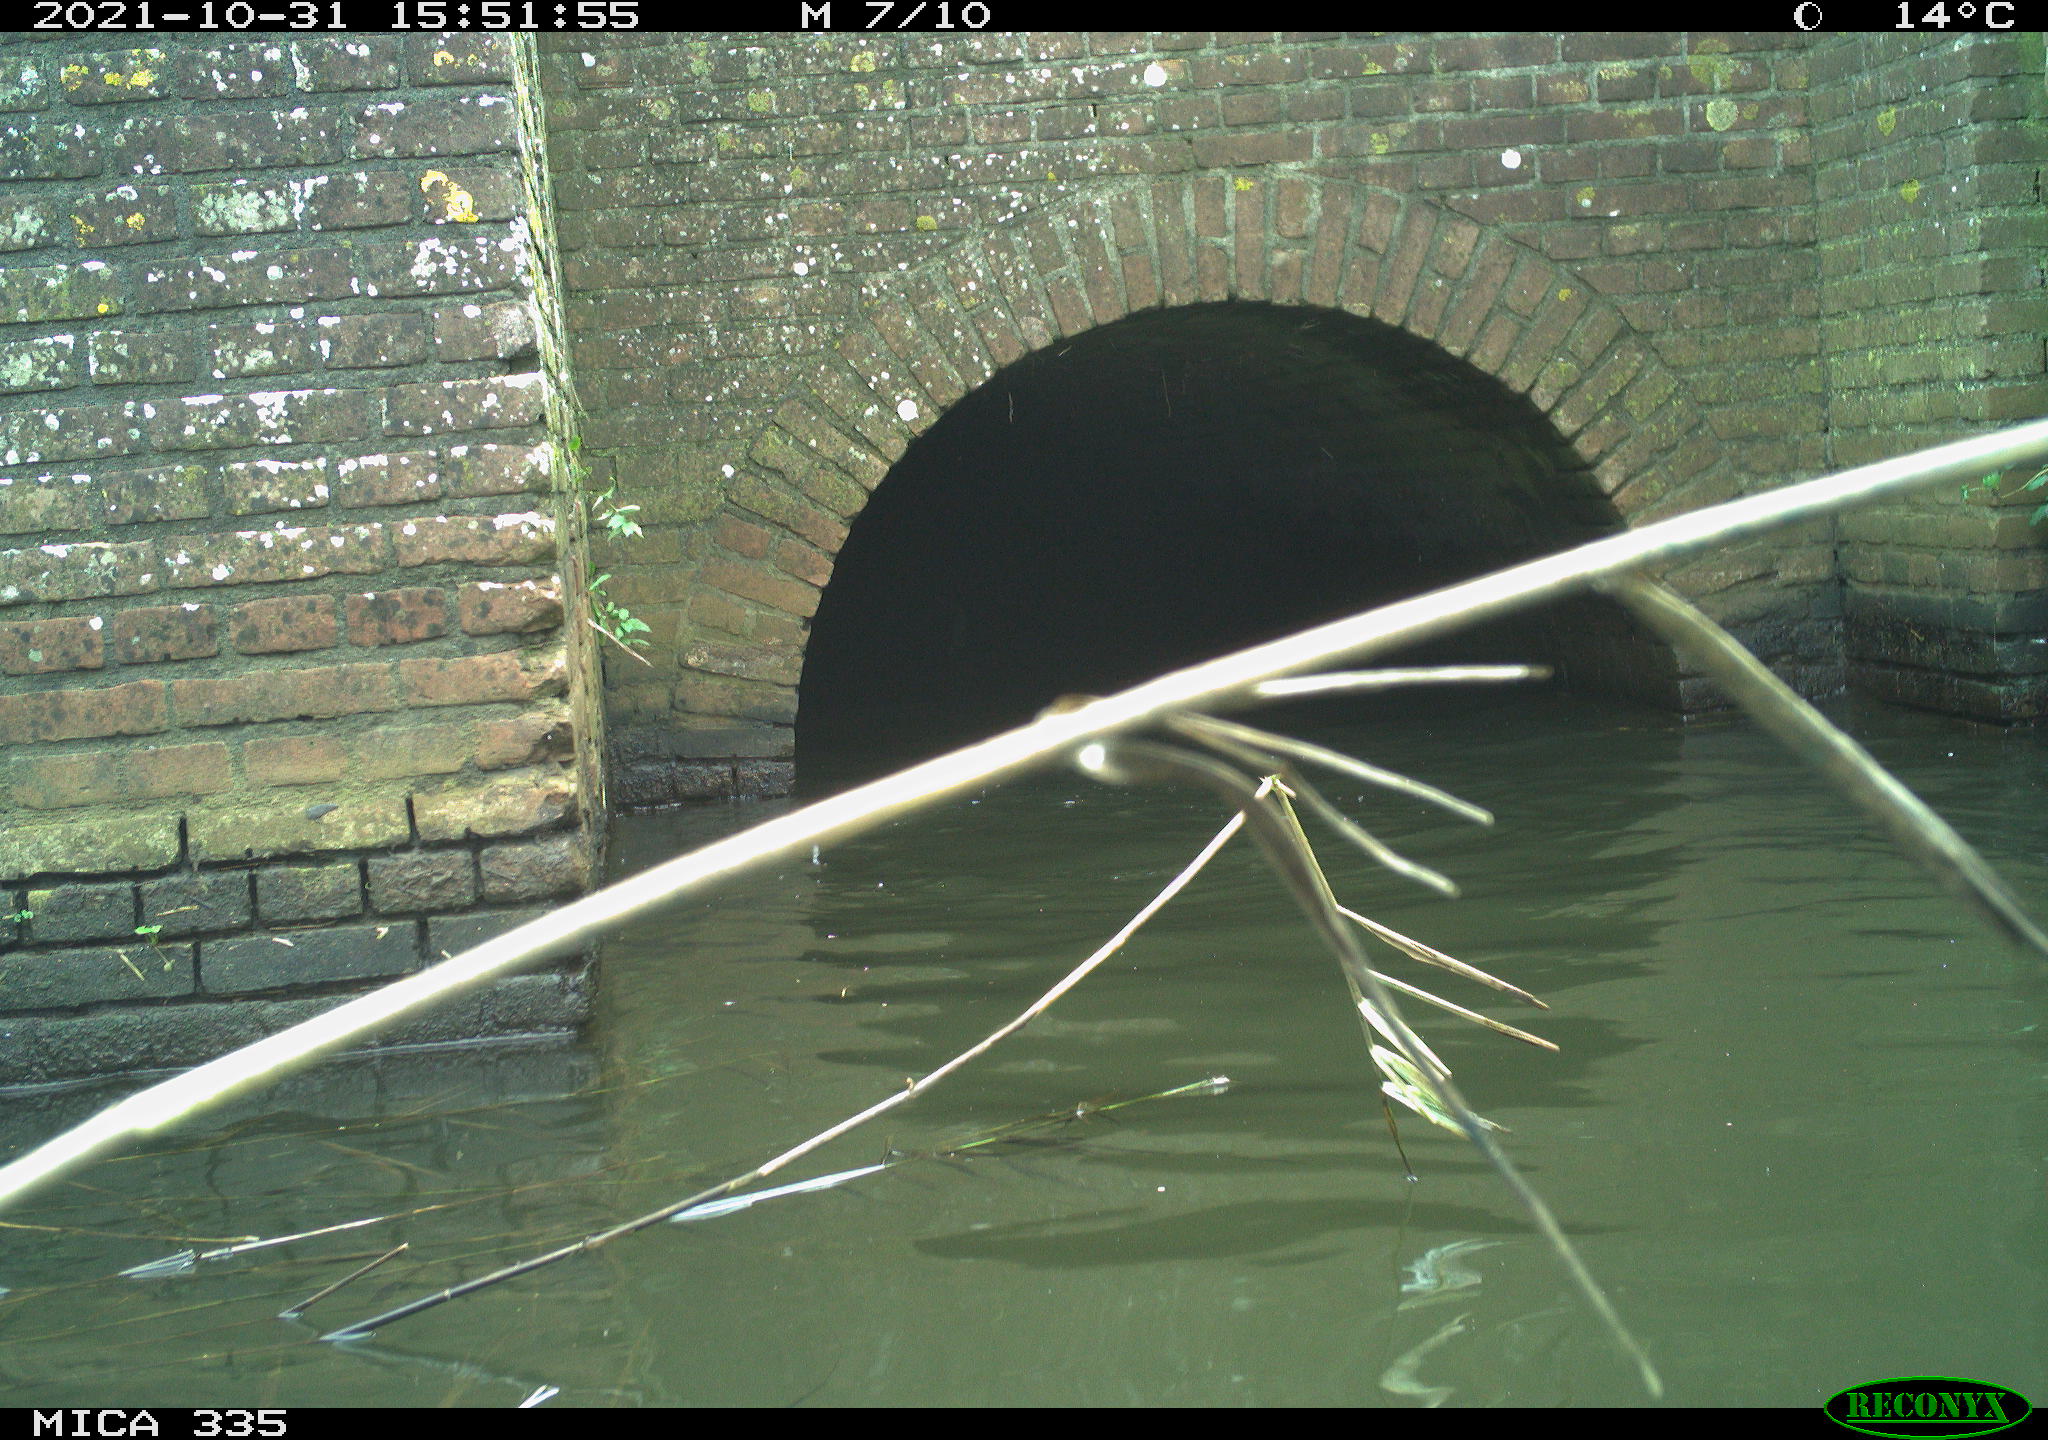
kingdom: Animalia
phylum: Chordata
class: Aves
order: Suliformes
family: Phalacrocoracidae
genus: Phalacrocorax
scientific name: Phalacrocorax carbo
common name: Great cormorant
